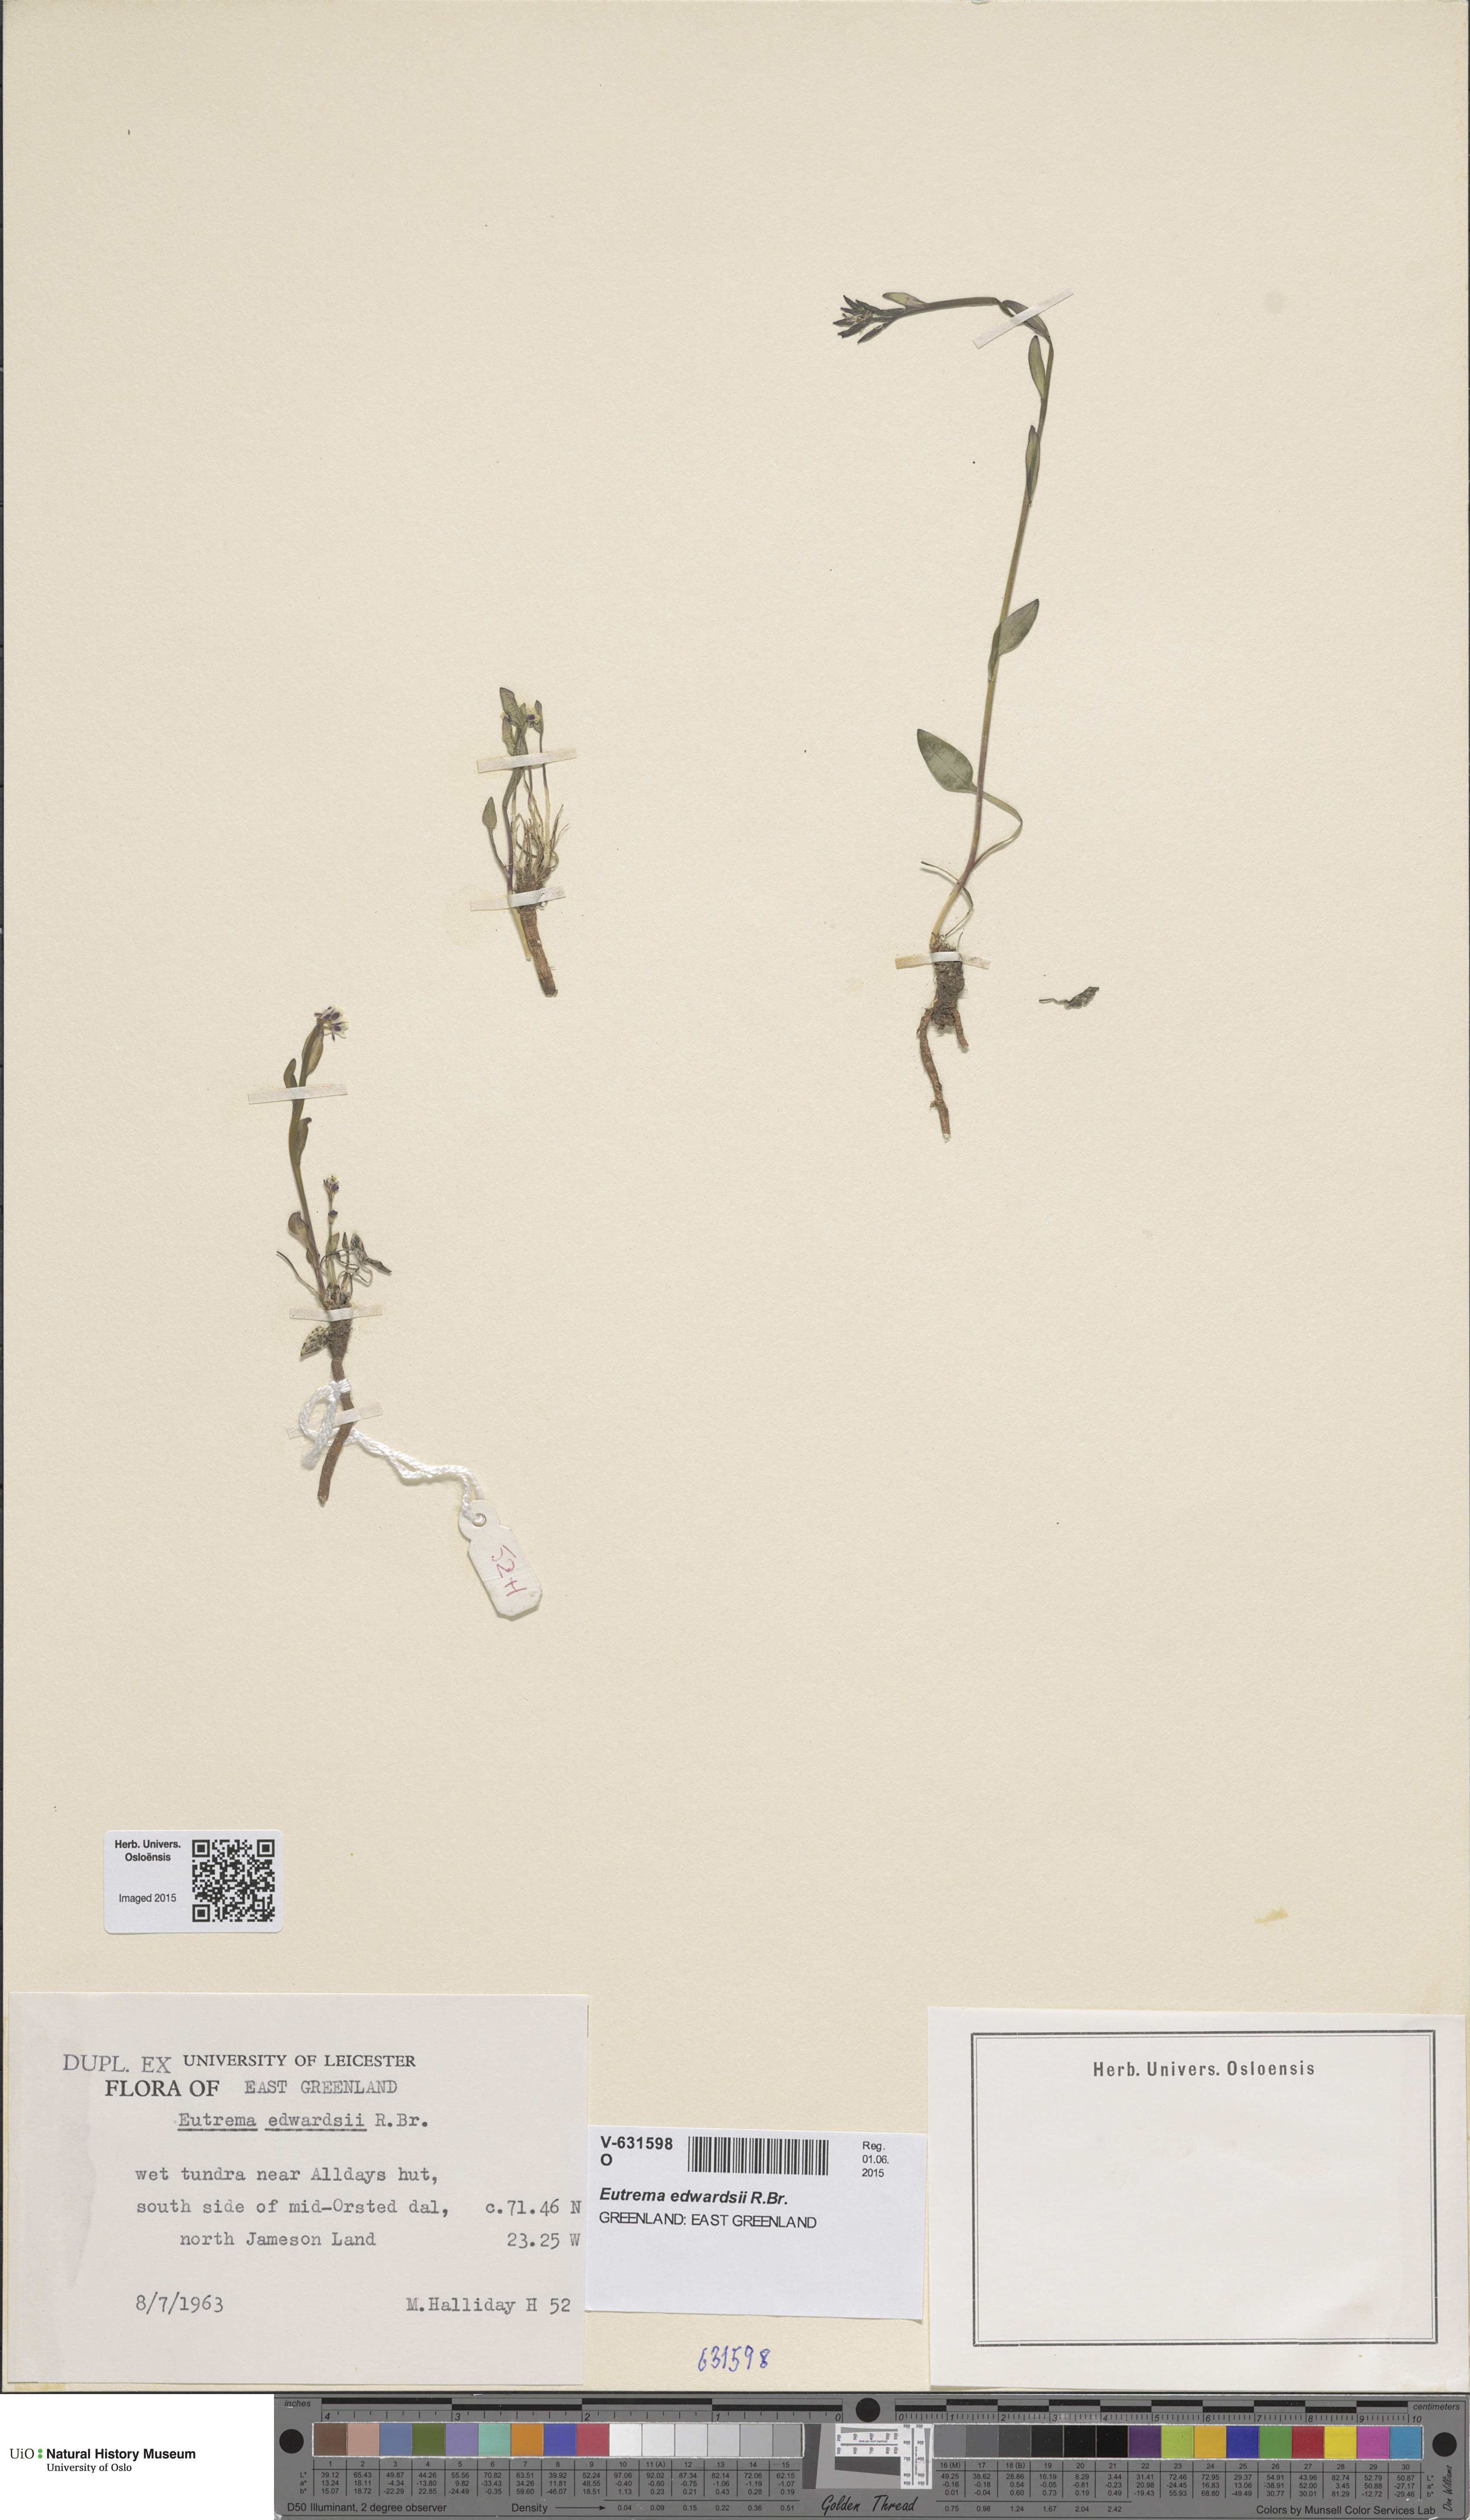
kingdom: Plantae
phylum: Tracheophyta
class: Magnoliopsida
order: Brassicales
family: Brassicaceae
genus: Eutrema
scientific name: Eutrema edwardsii
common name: Penland alpine fen mustard
